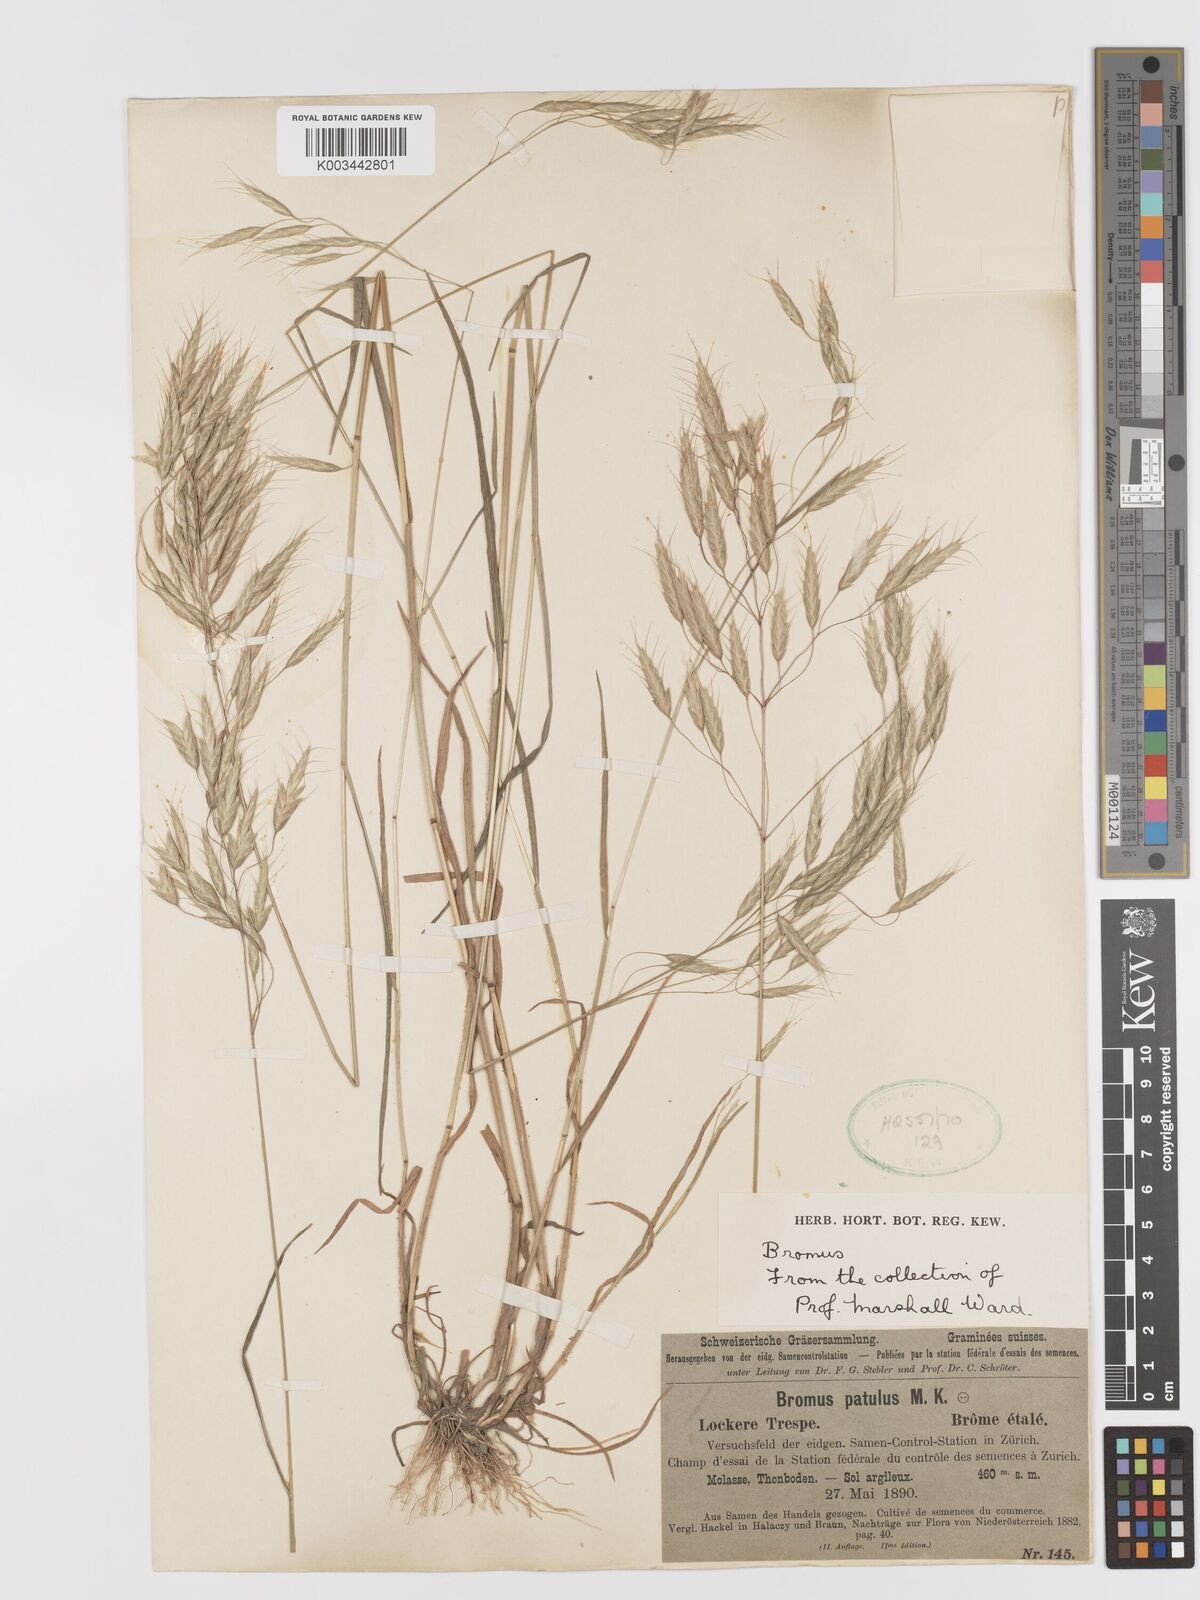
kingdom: Plantae
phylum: Tracheophyta
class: Liliopsida
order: Poales
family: Poaceae
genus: Bromus
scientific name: Bromus japonicus
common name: Japanese brome
